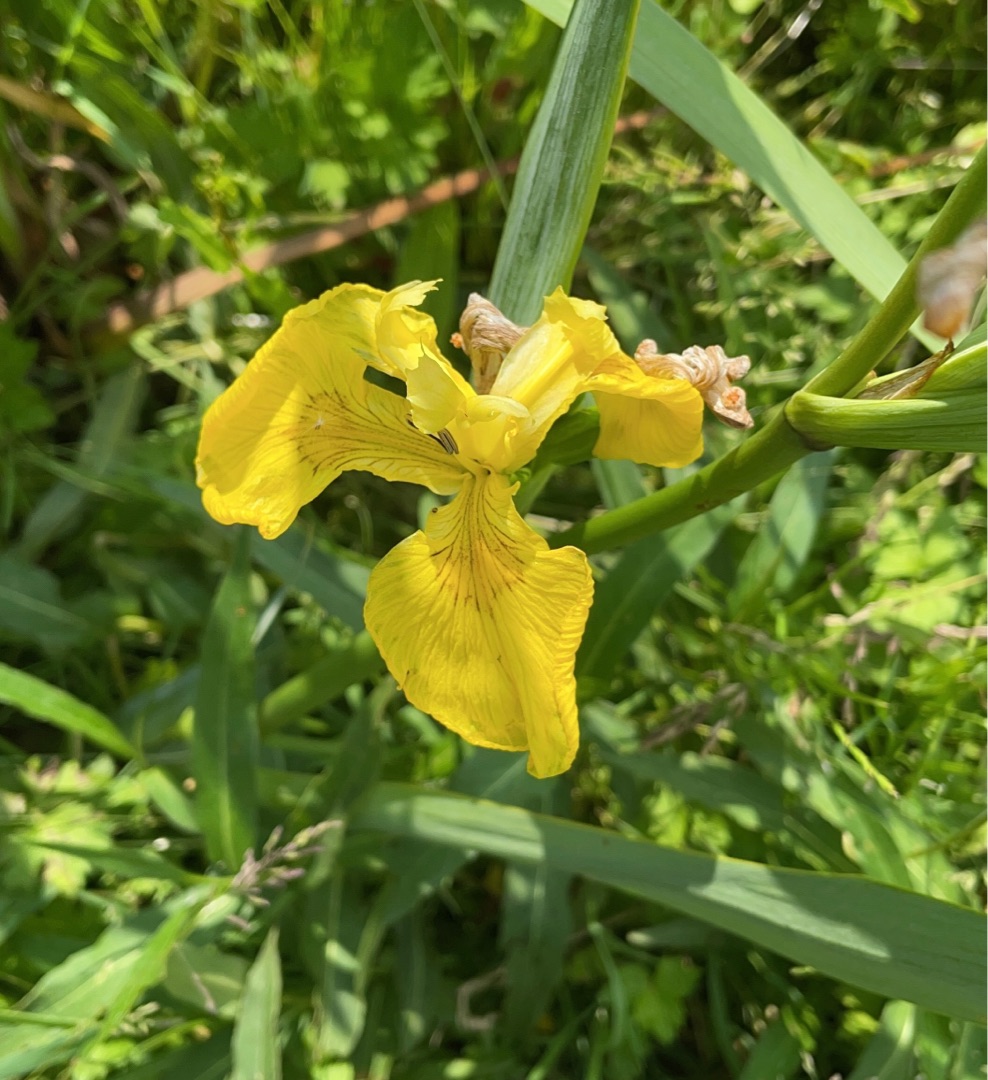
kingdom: Plantae
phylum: Tracheophyta
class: Liliopsida
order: Asparagales
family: Iridaceae
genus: Iris
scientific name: Iris pseudacorus
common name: Gul iris
